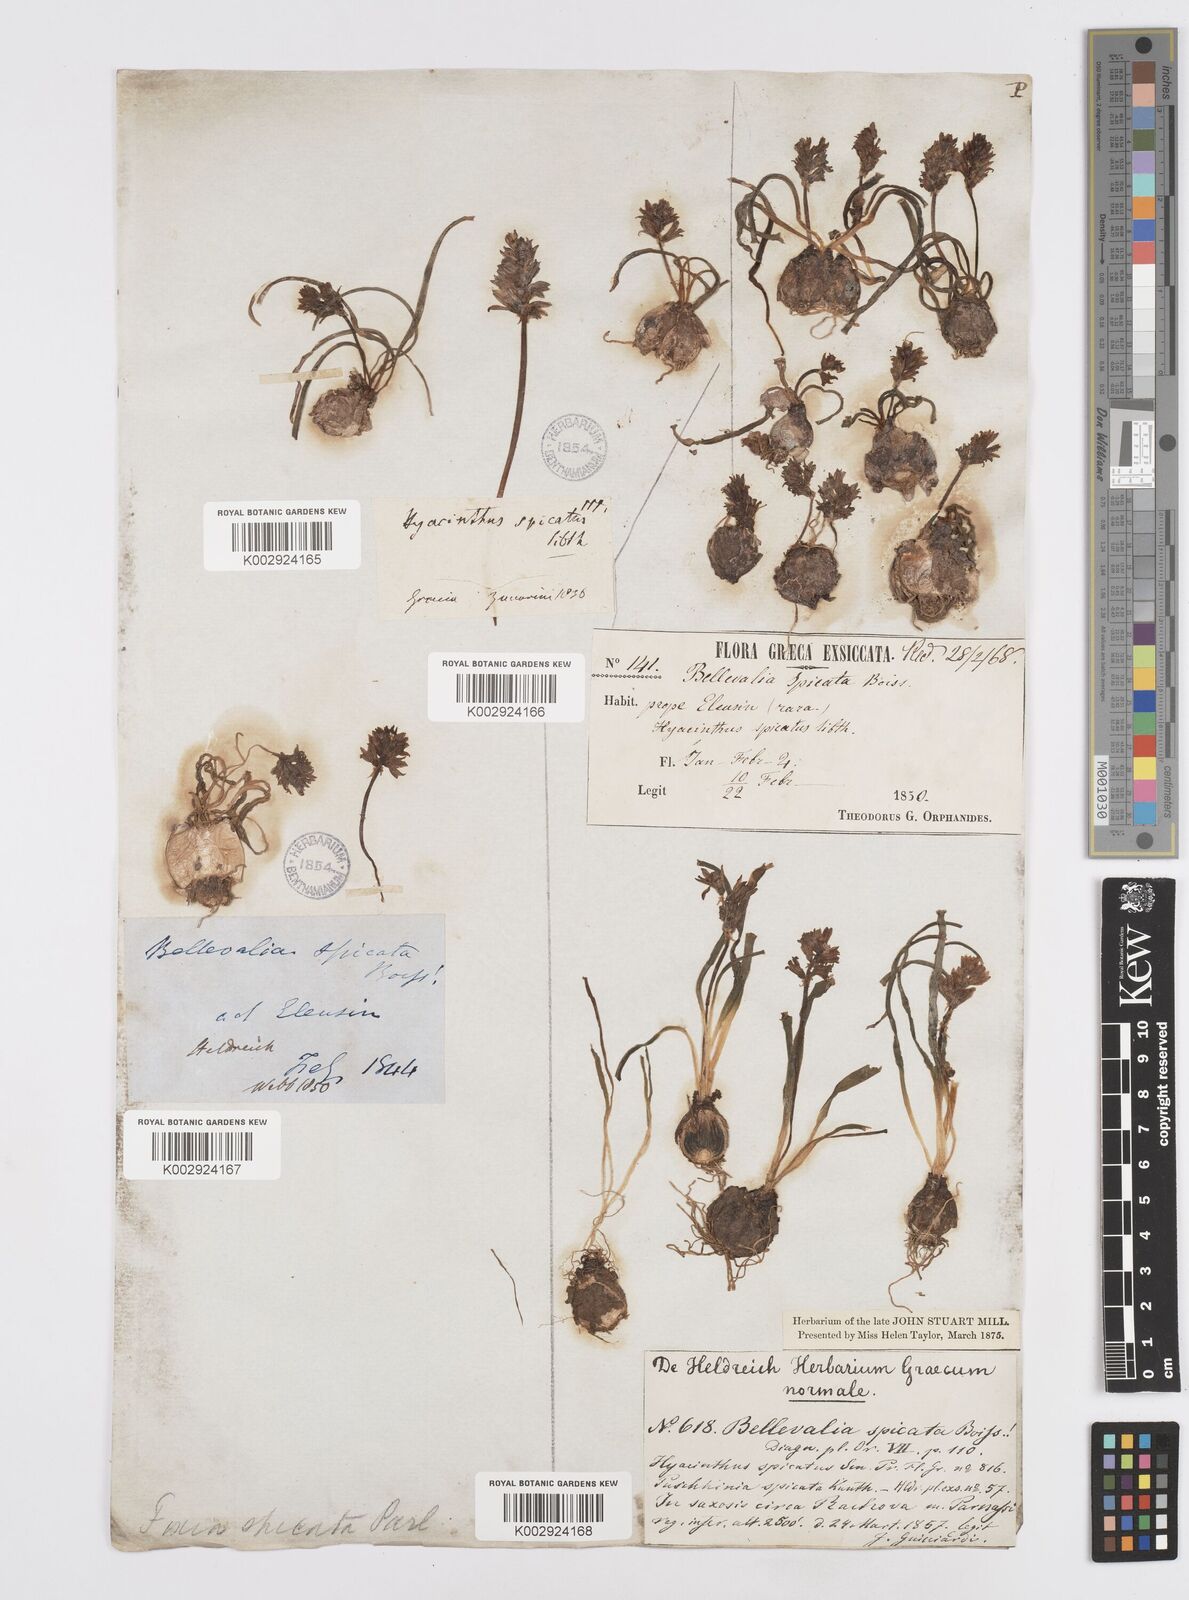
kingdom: Plantae
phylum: Tracheophyta
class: Liliopsida
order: Asparagales
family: Asparagaceae
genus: Bellevalia
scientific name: Bellevalia hyacinthoides
